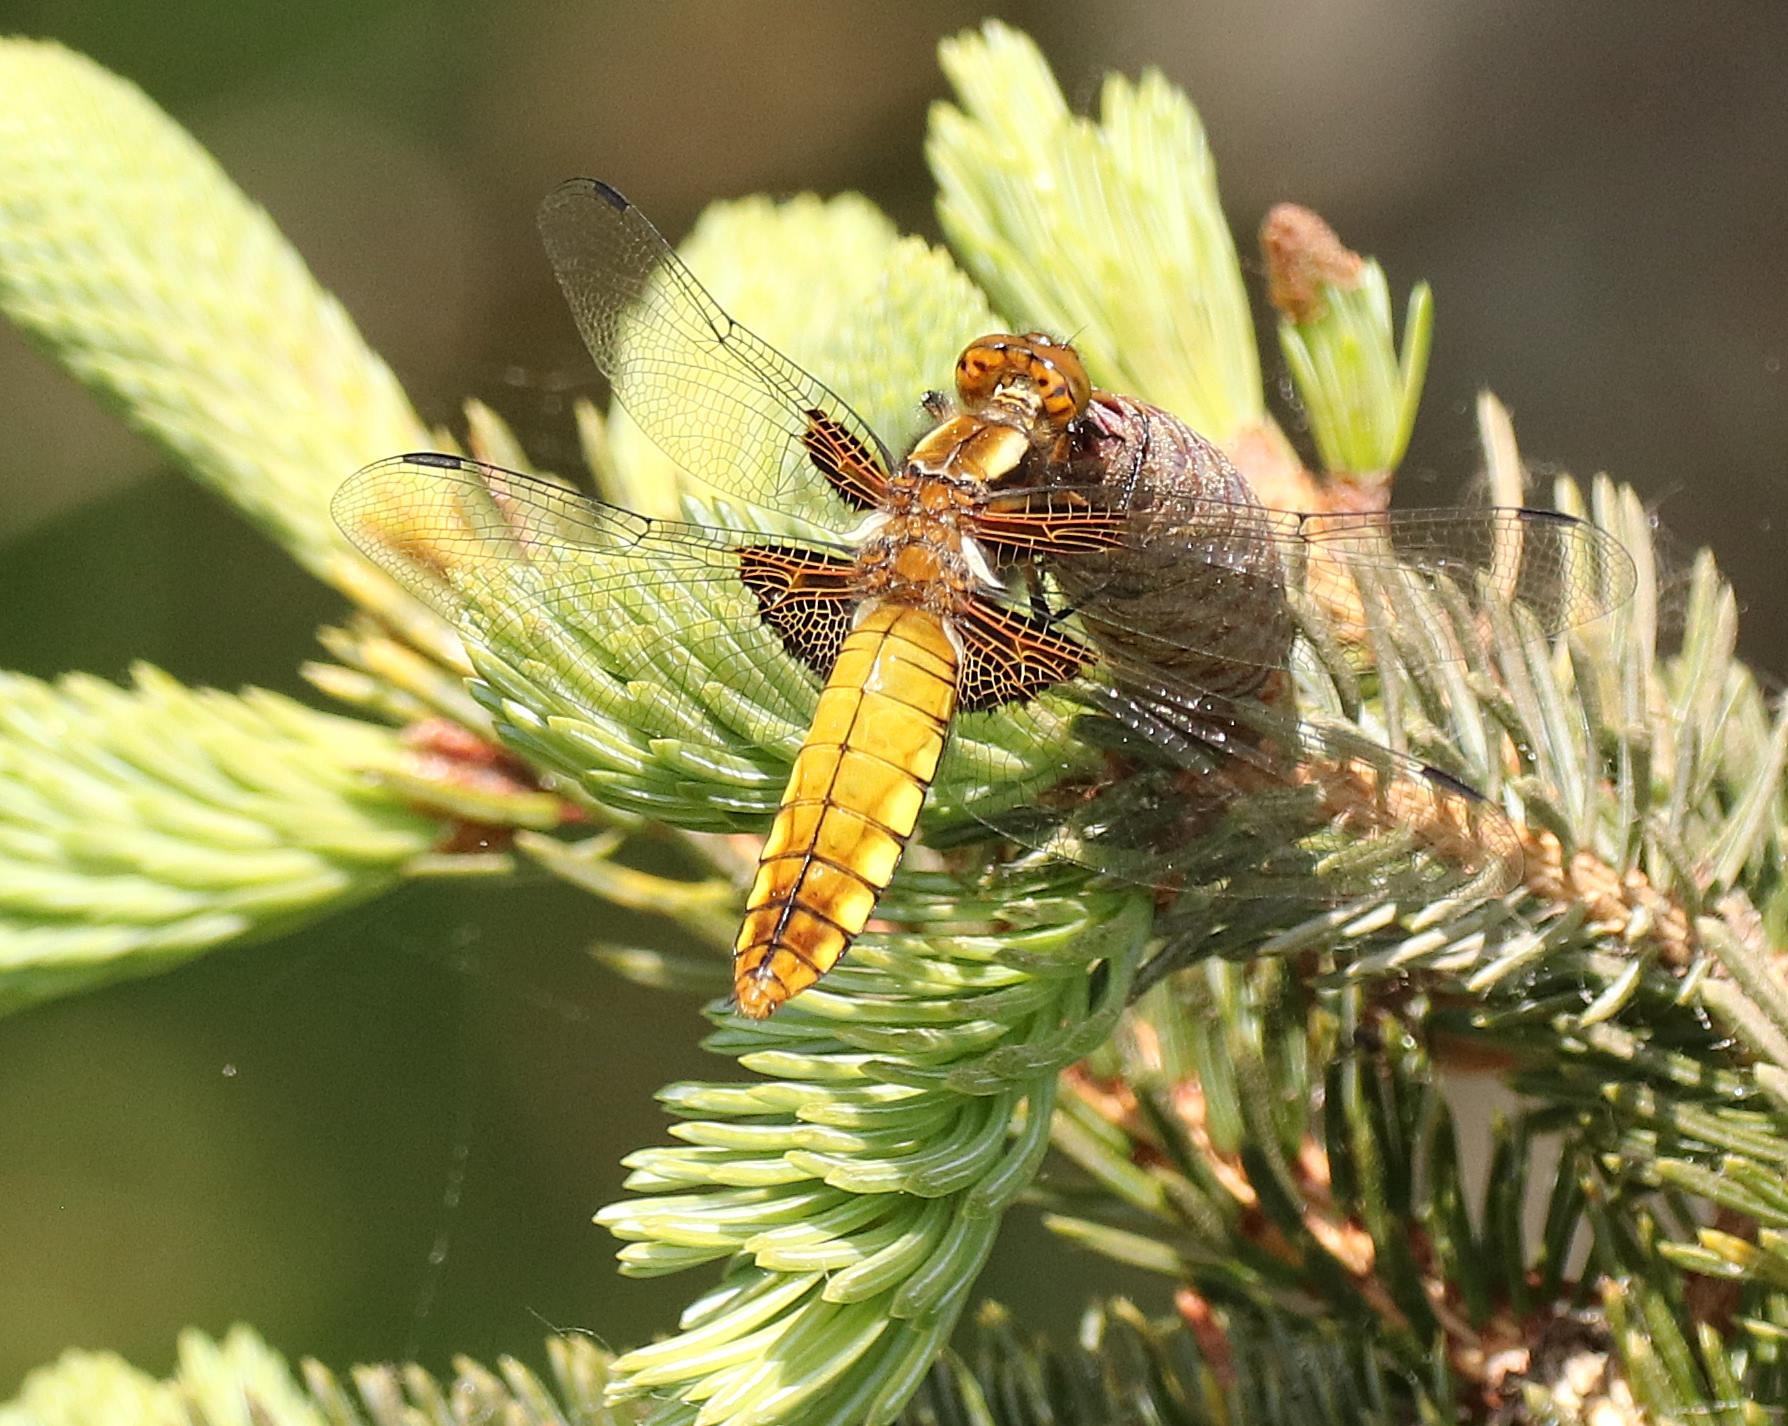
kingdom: Animalia
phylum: Arthropoda
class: Insecta
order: Odonata
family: Libellulidae
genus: Libellula
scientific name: Libellula depressa
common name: Blå libel
